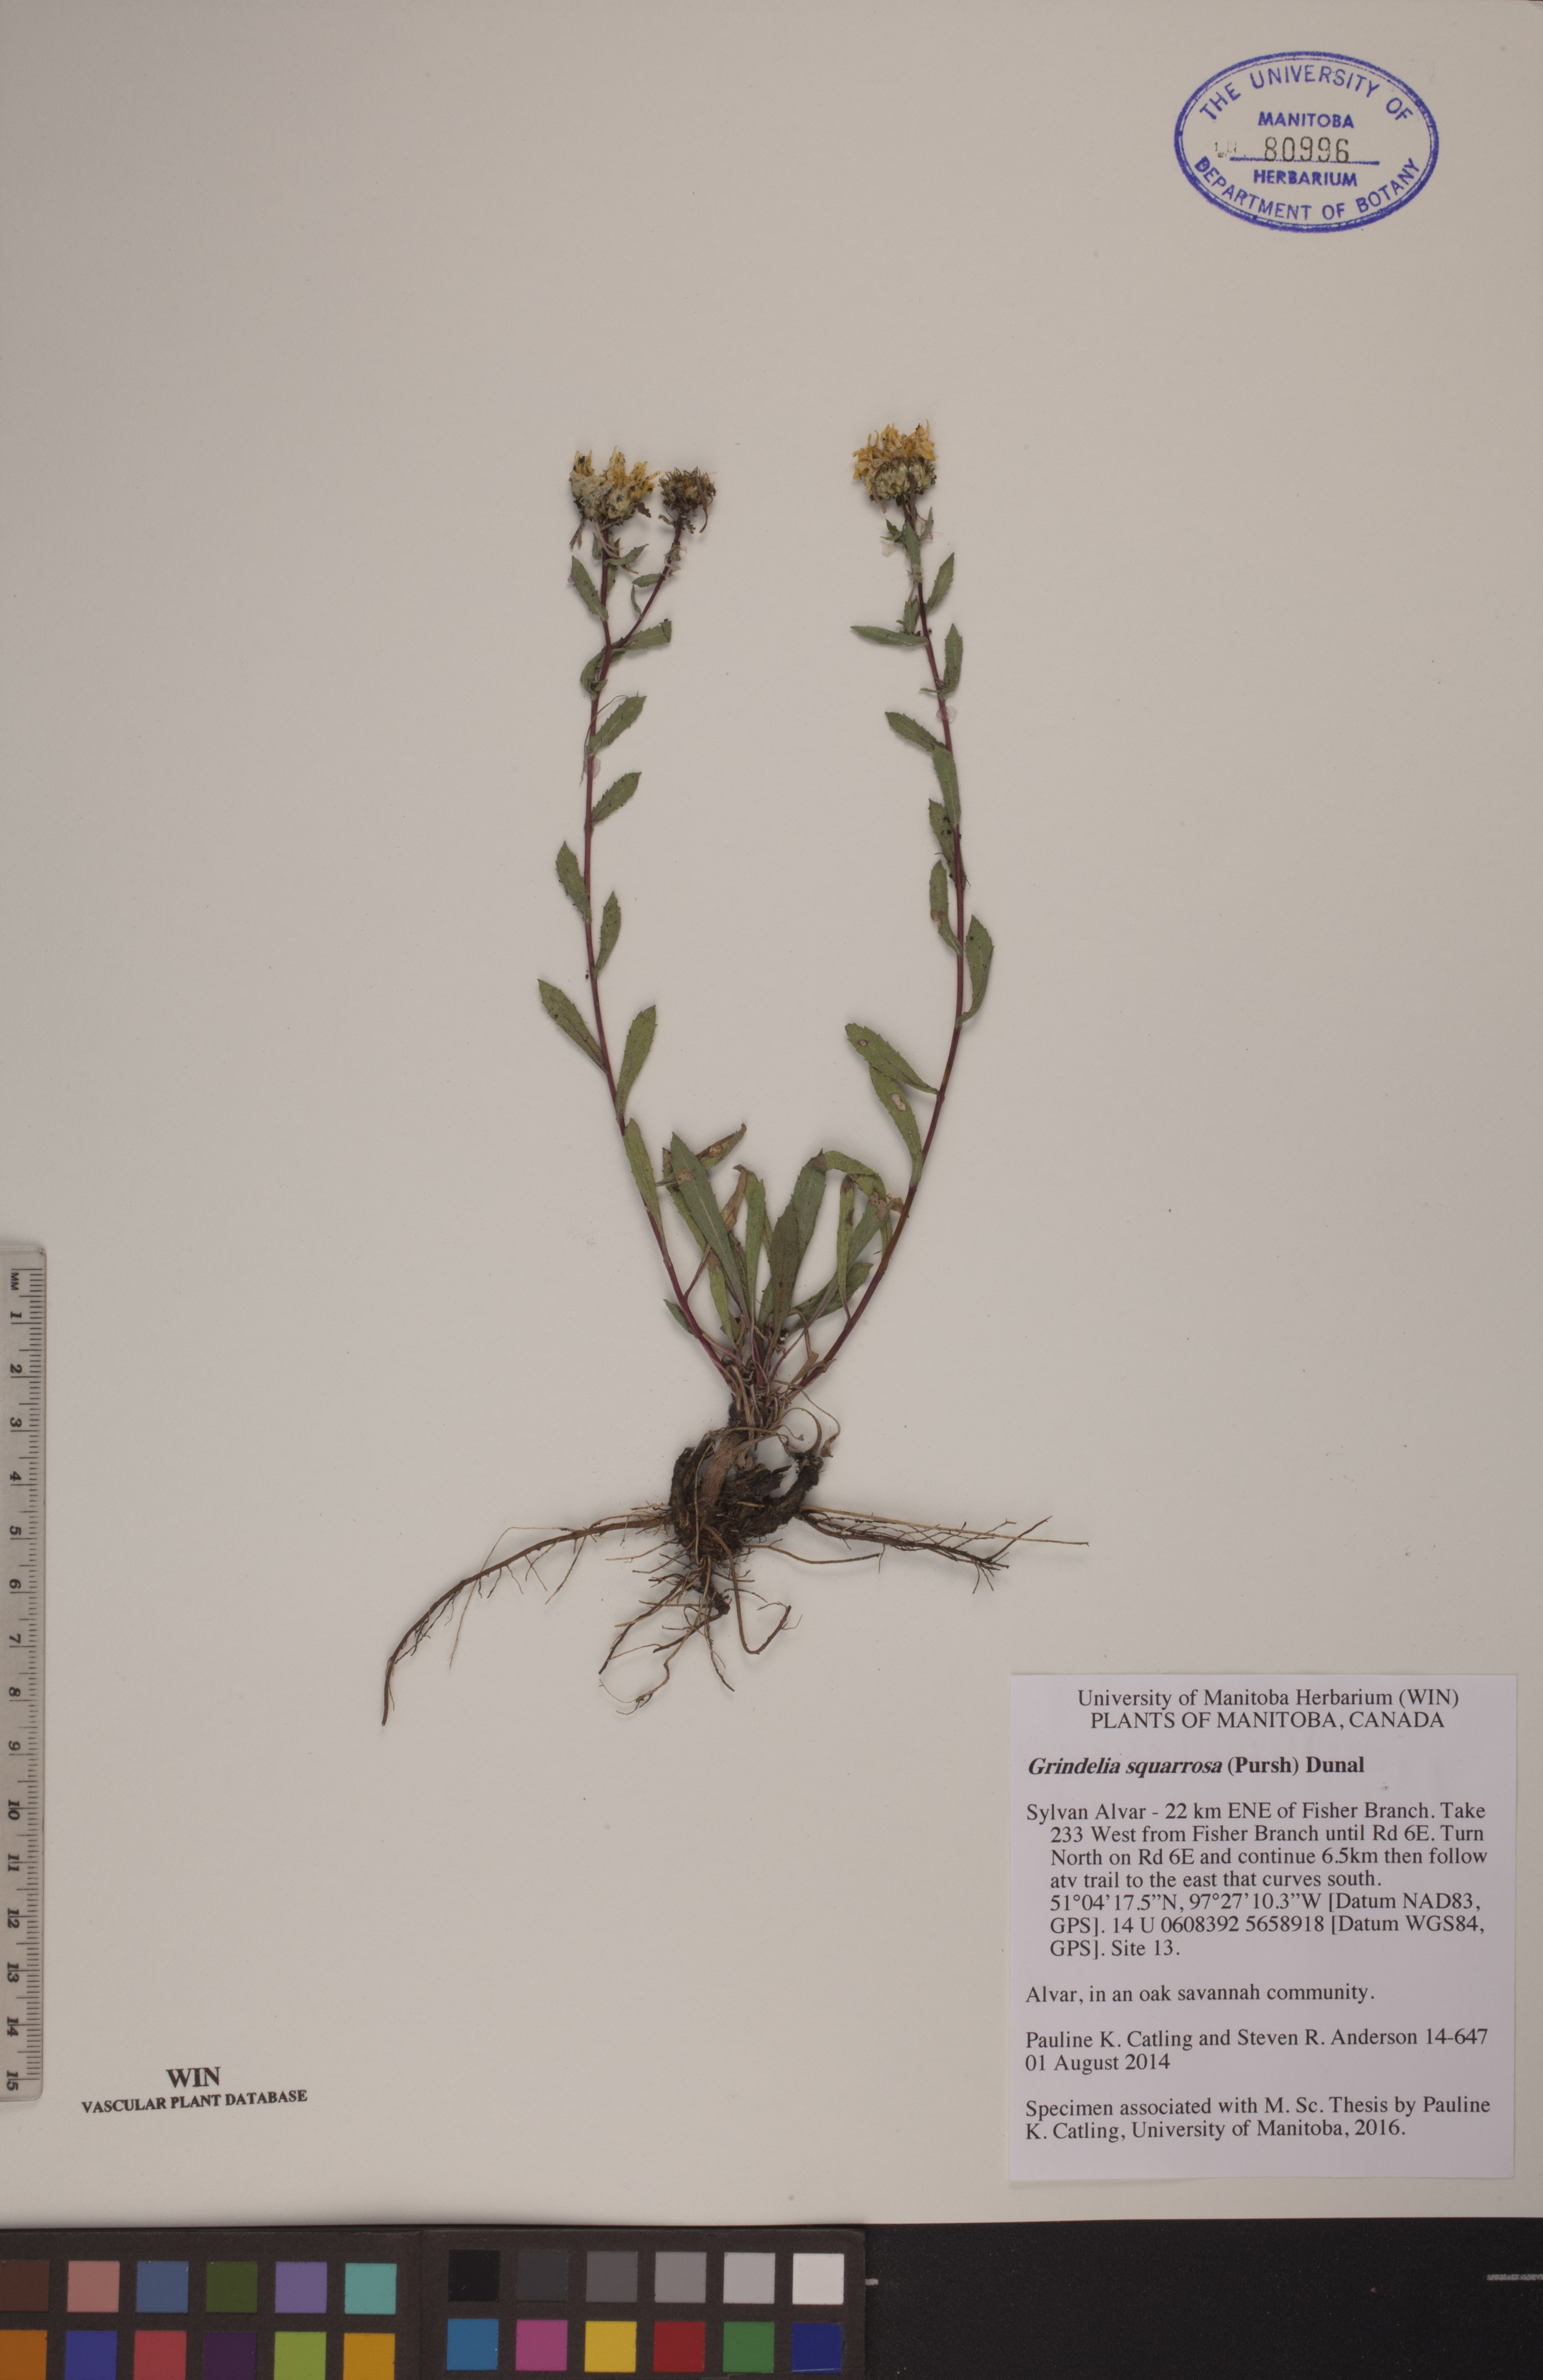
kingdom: Plantae
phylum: Tracheophyta
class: Magnoliopsida
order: Asterales
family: Asteraceae
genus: Grindelia
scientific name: Grindelia squarrosa
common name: Curly-cup gumweed
